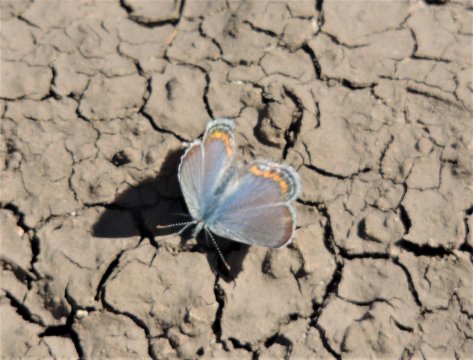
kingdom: Animalia
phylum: Arthropoda
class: Insecta
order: Lepidoptera
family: Lycaenidae
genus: Plebejus
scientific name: Plebejus lupini
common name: Lupine Blue
